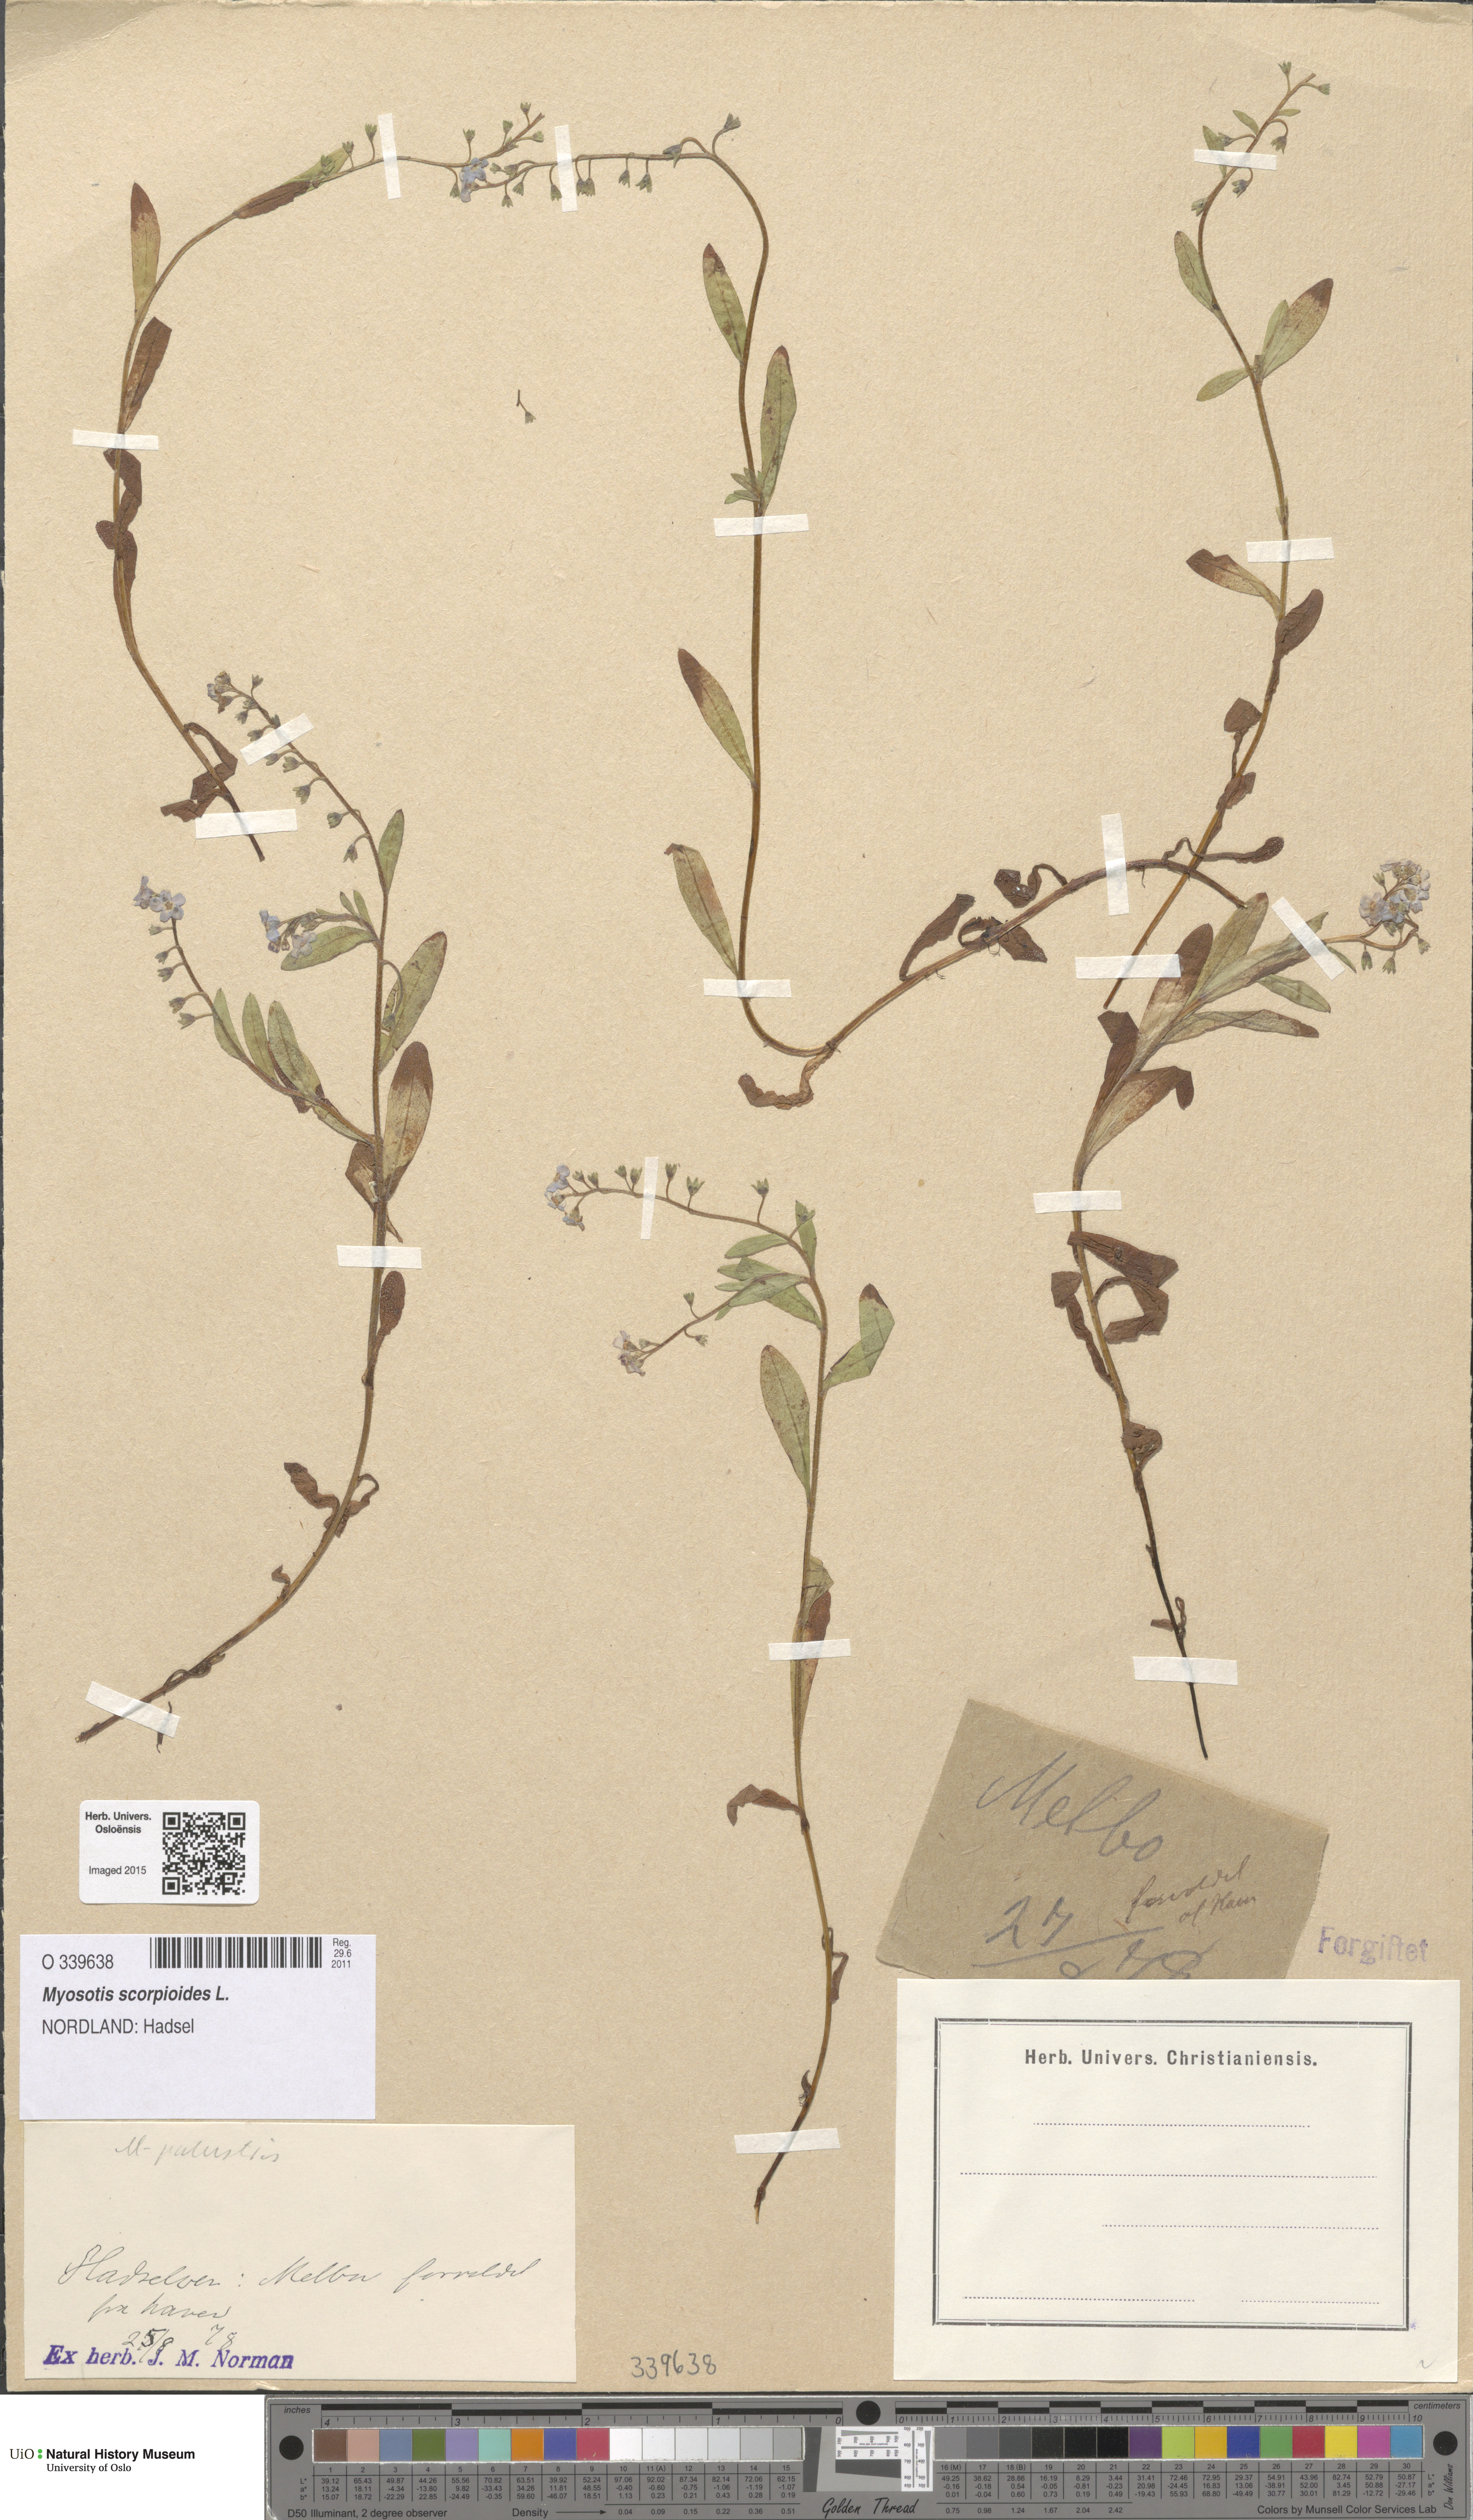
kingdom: Plantae
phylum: Tracheophyta
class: Magnoliopsida
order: Boraginales
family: Boraginaceae
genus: Myosotis
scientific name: Myosotis scorpioides
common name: Water forget-me-not
